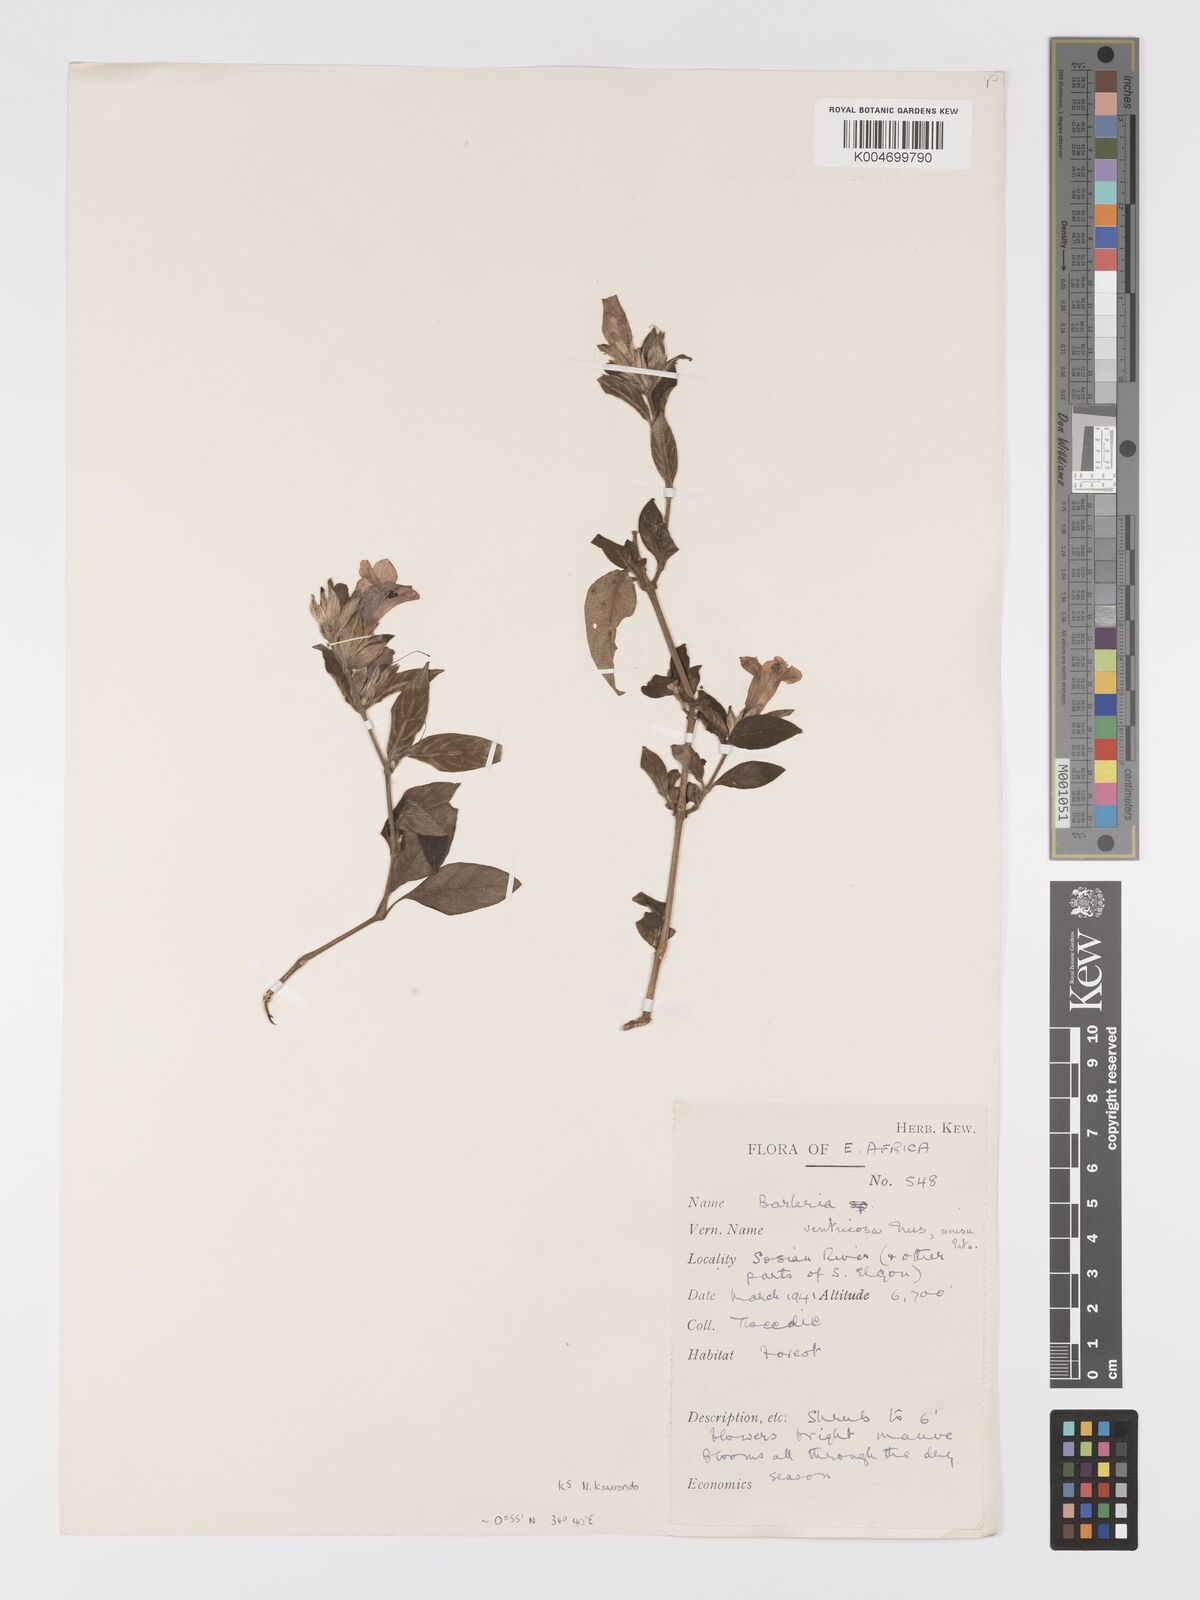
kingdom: Plantae
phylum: Tracheophyta
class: Magnoliopsida
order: Lamiales
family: Acanthaceae
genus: Barleria
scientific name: Barleria ventricosa
